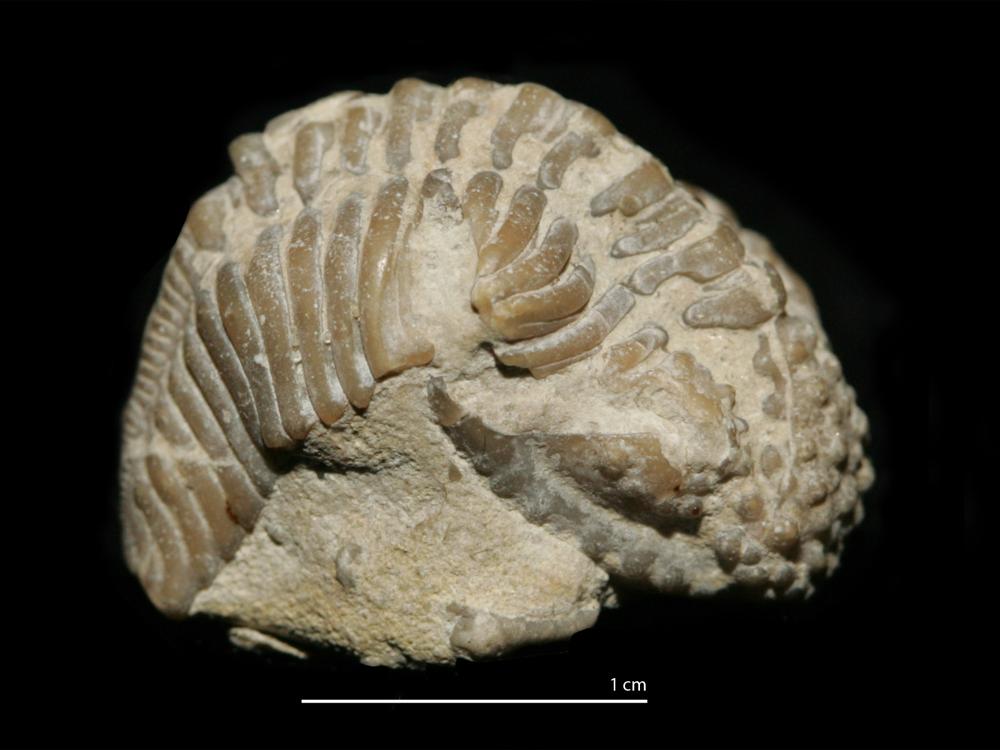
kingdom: Animalia
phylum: Arthropoda
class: Trilobita
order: Phacopida
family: Encrinuridae
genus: Encrinurus
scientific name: Encrinurus punctatus
